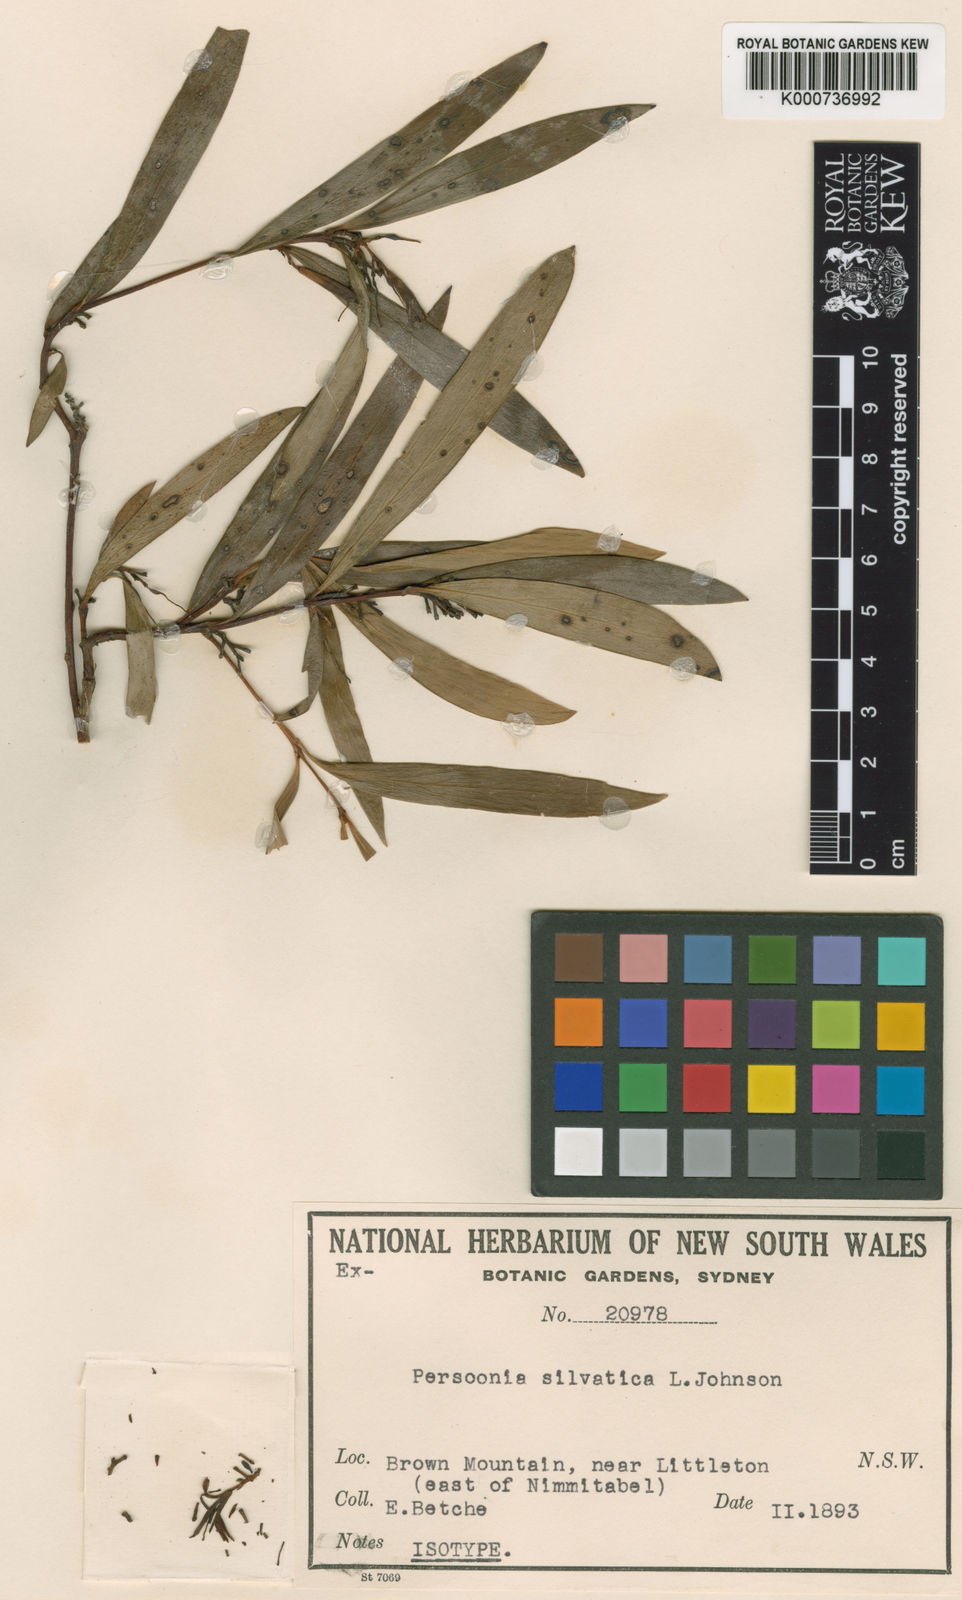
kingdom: Plantae
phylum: Tracheophyta
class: Magnoliopsida
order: Proteales
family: Proteaceae
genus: Persoonia
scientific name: Persoonia silvatica
